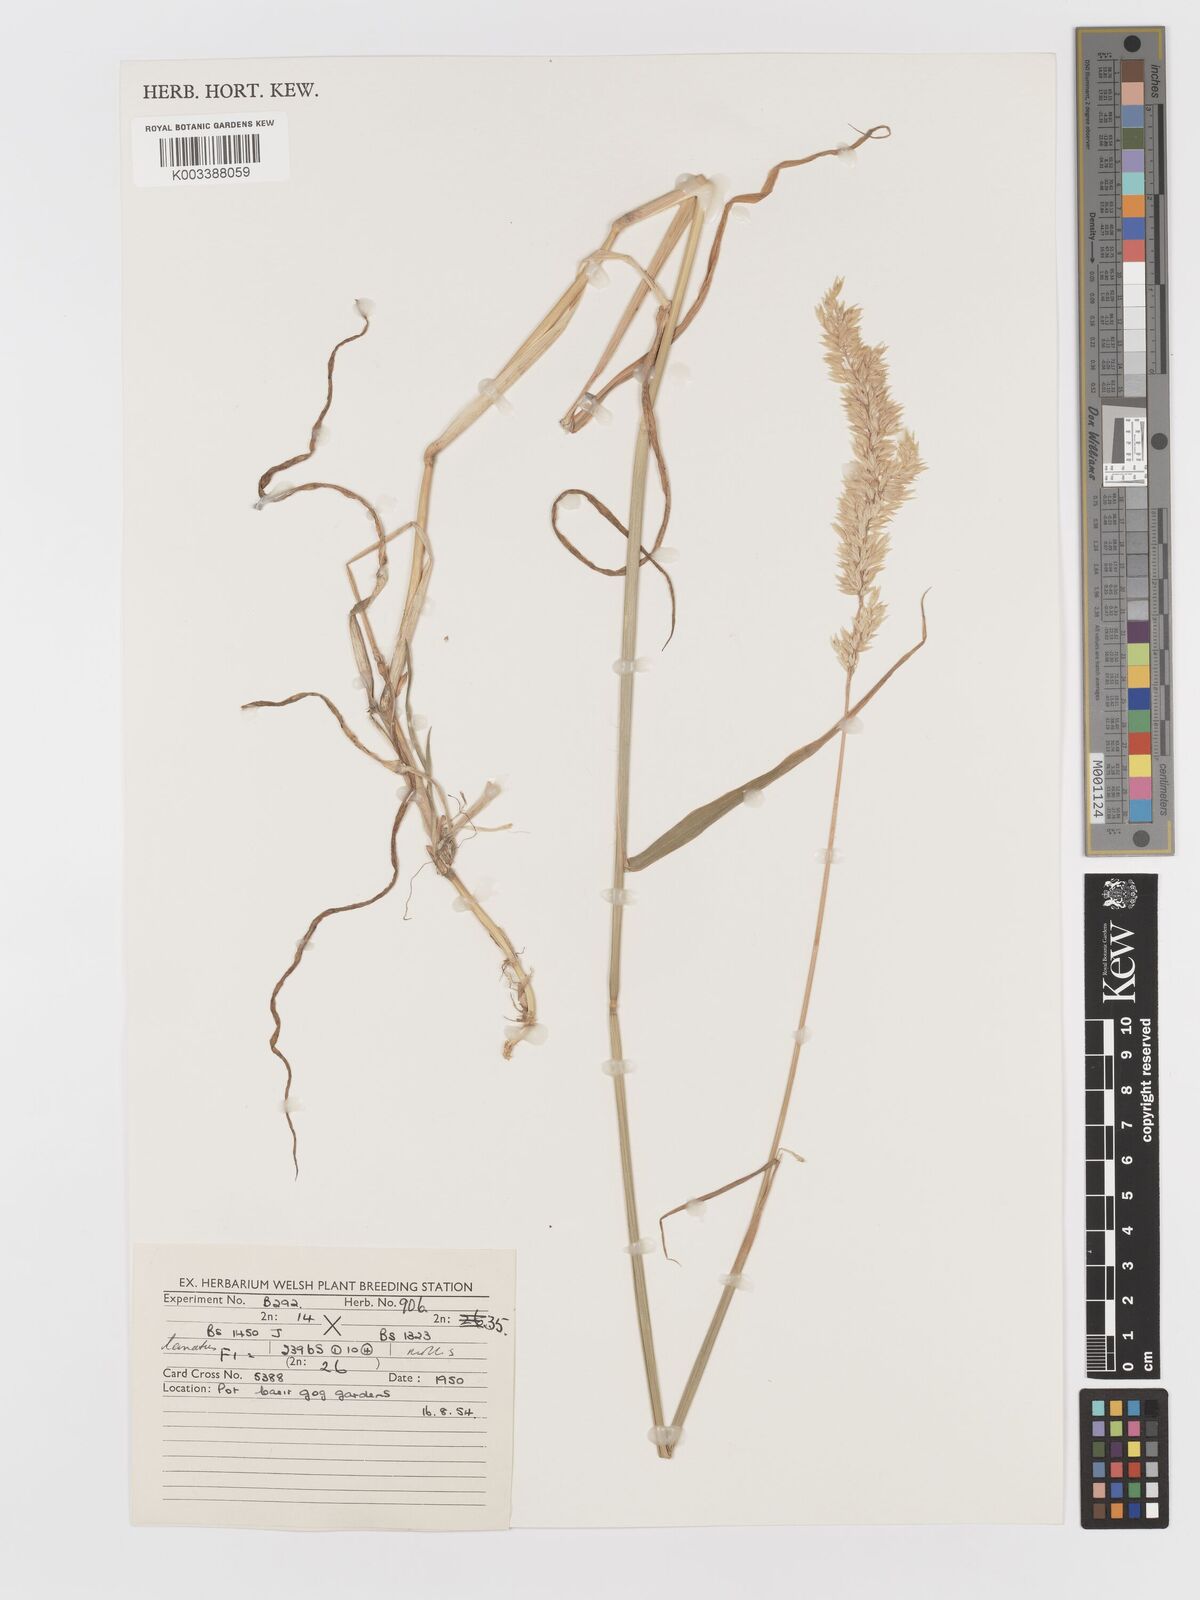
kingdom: Plantae
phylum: Tracheophyta
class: Liliopsida
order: Poales
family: Poaceae
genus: Holcus
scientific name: Holcus lanatus
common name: Yorkshire-fog
